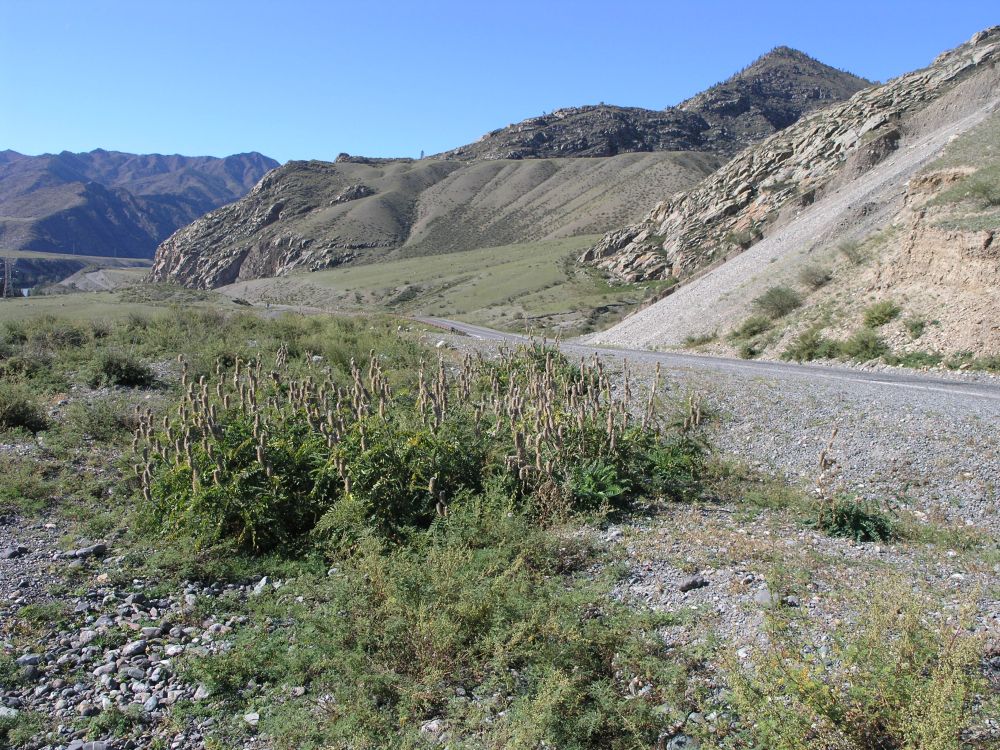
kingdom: Plantae
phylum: Tracheophyta
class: Magnoliopsida
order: Fabales
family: Fabaceae
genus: Astragalus
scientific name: Astragalus alopecurus
